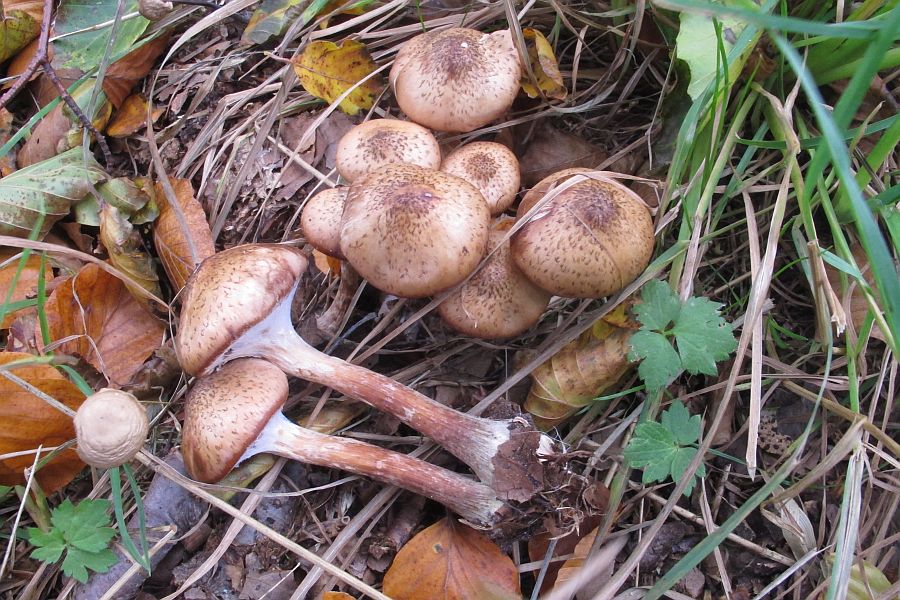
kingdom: Fungi
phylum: Basidiomycota
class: Agaricomycetes
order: Agaricales
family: Physalacriaceae
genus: Armillaria
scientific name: Armillaria lutea
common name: køllestokket honningsvamp
